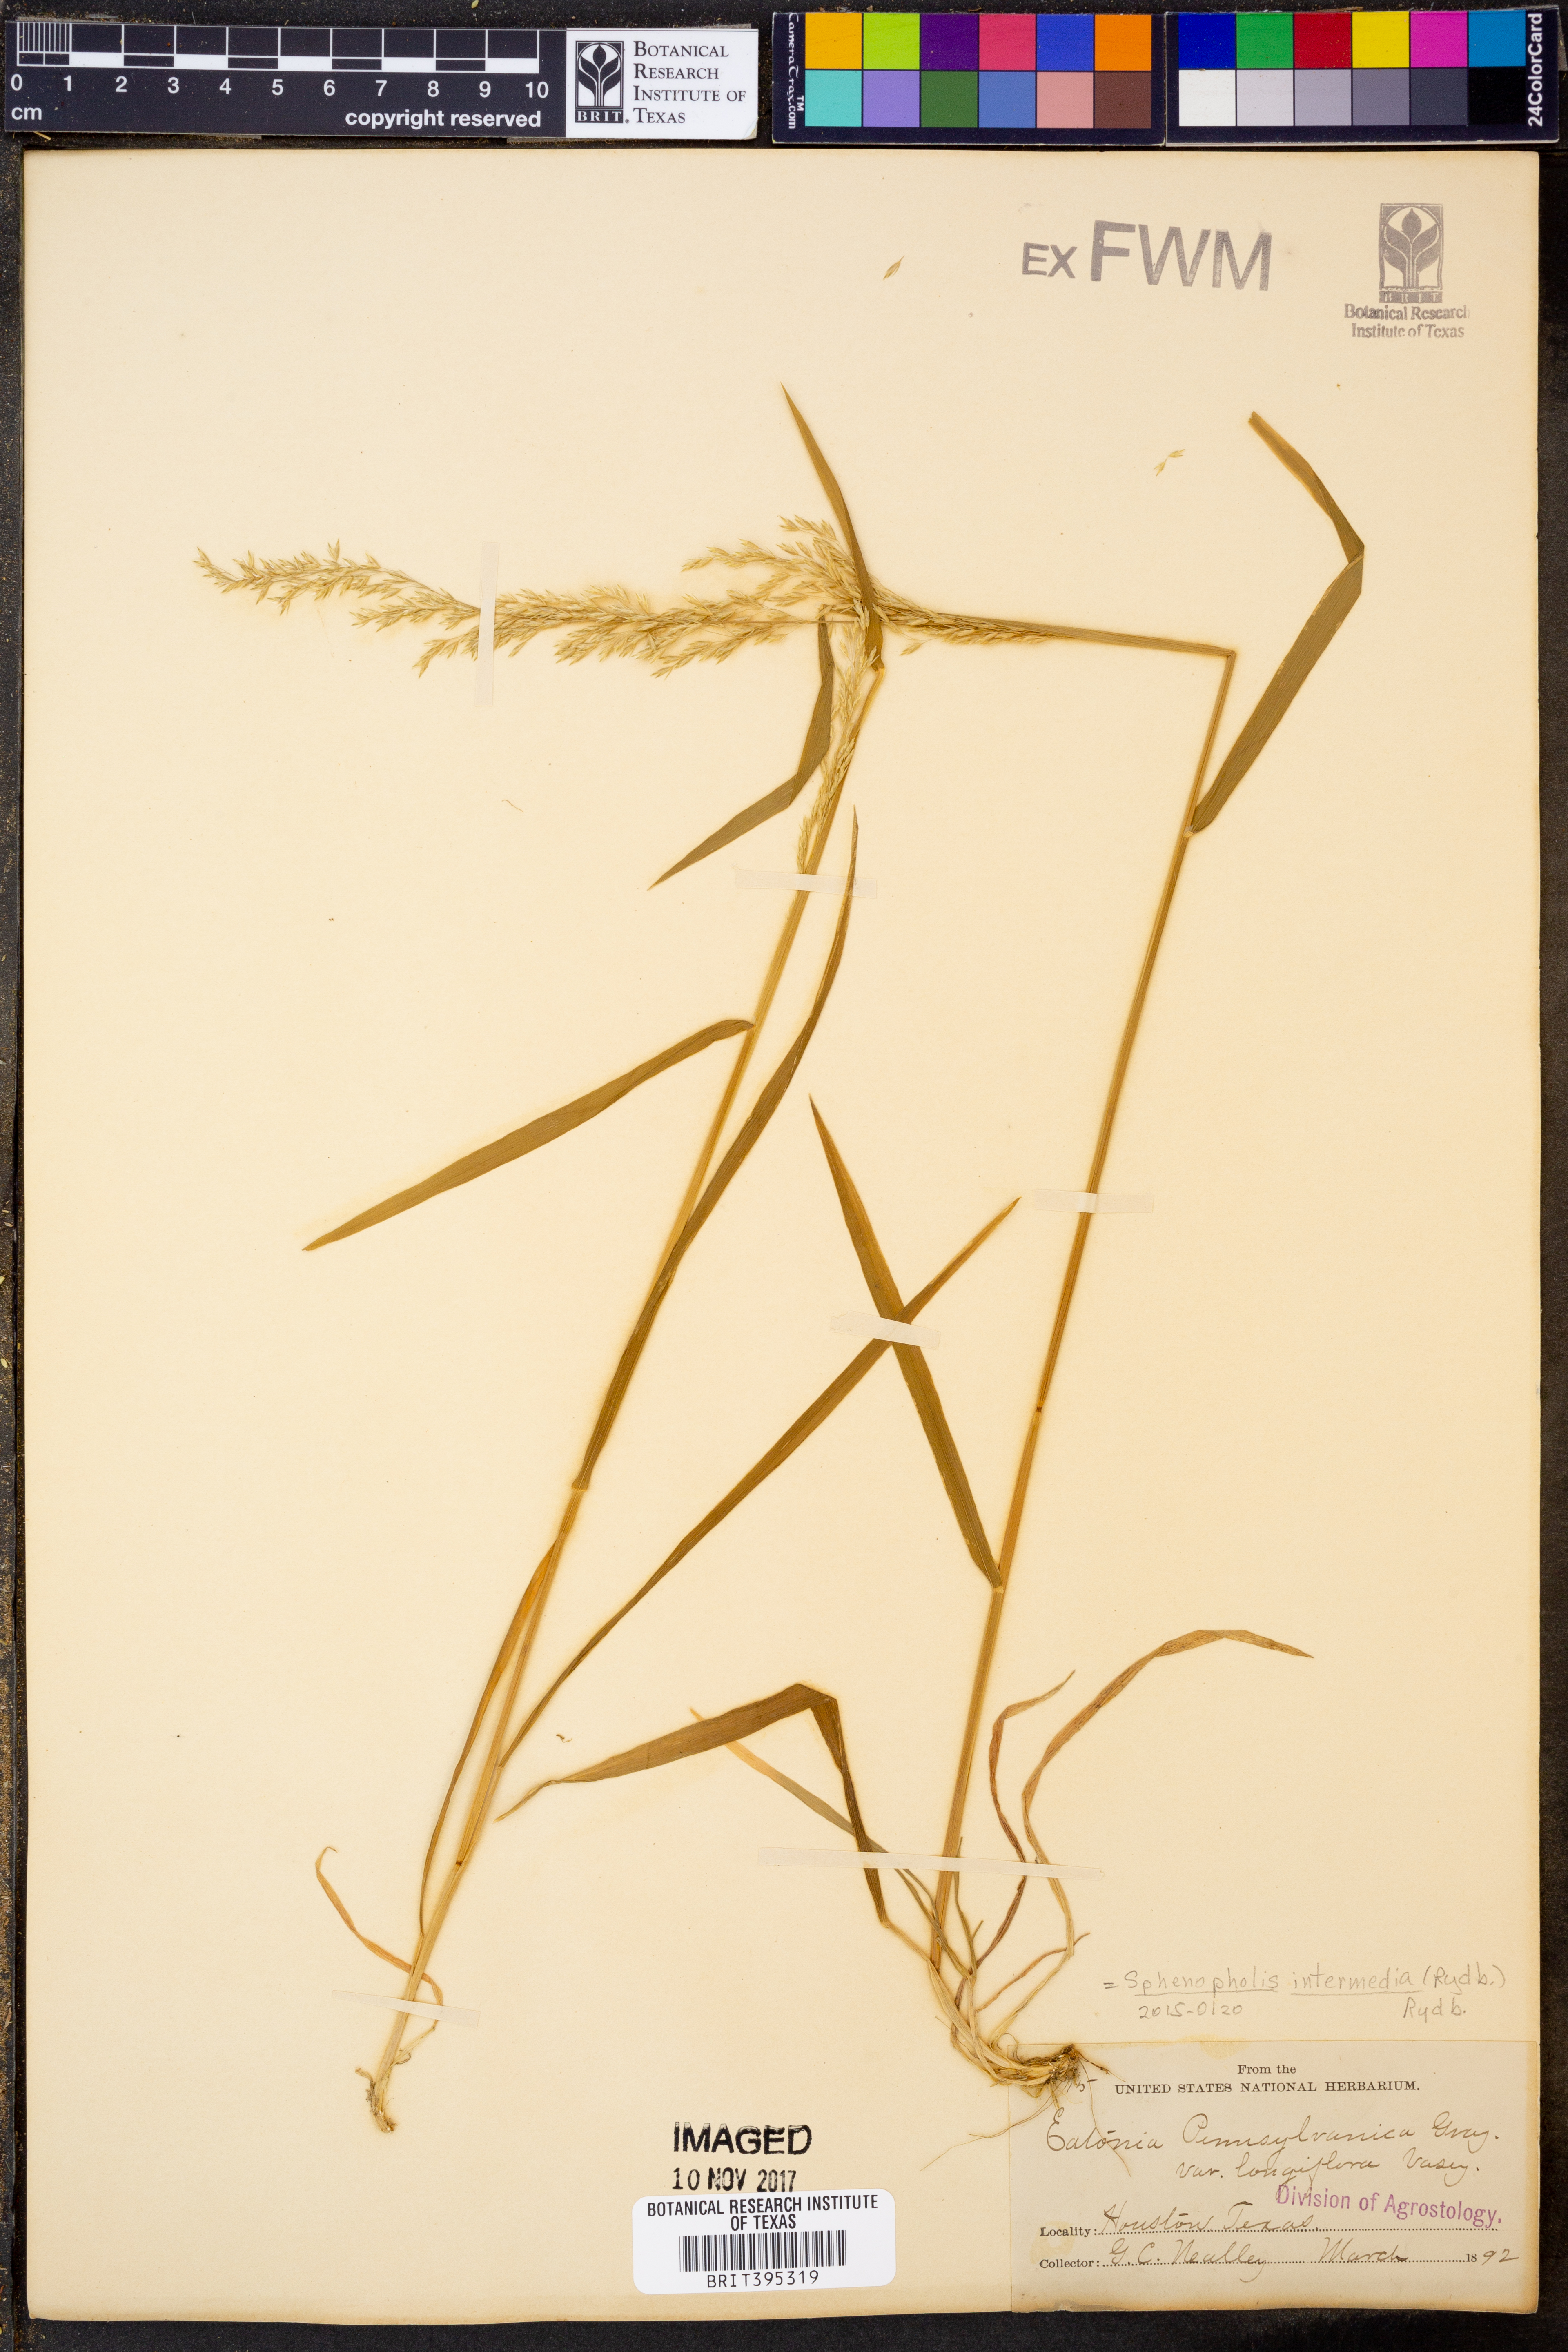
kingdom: Plantae
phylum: Tracheophyta
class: Liliopsida
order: Poales
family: Poaceae
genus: Sphenopholis
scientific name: Sphenopholis intermedia
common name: Intermediate eaton's grass
